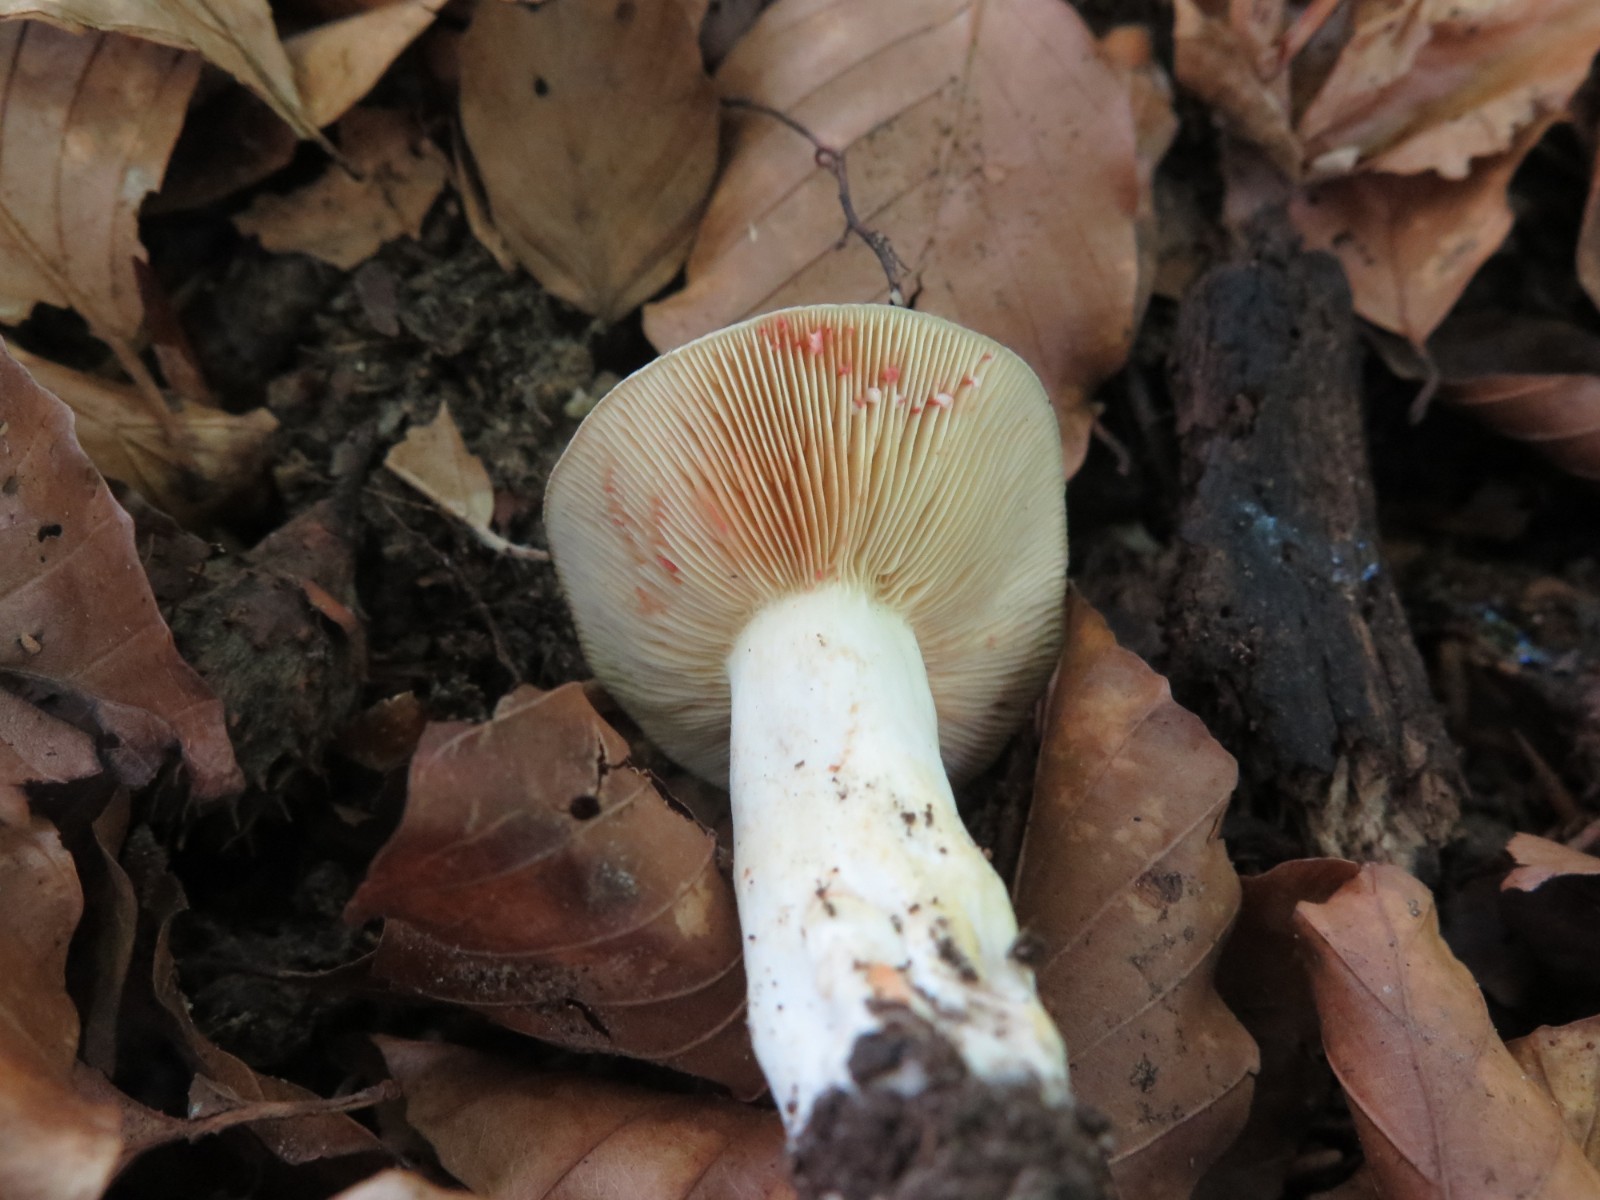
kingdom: Fungi
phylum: Basidiomycota
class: Agaricomycetes
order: Russulales
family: Russulaceae
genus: Lactarius
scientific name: Lactarius acris
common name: rosamælket mælkehat
